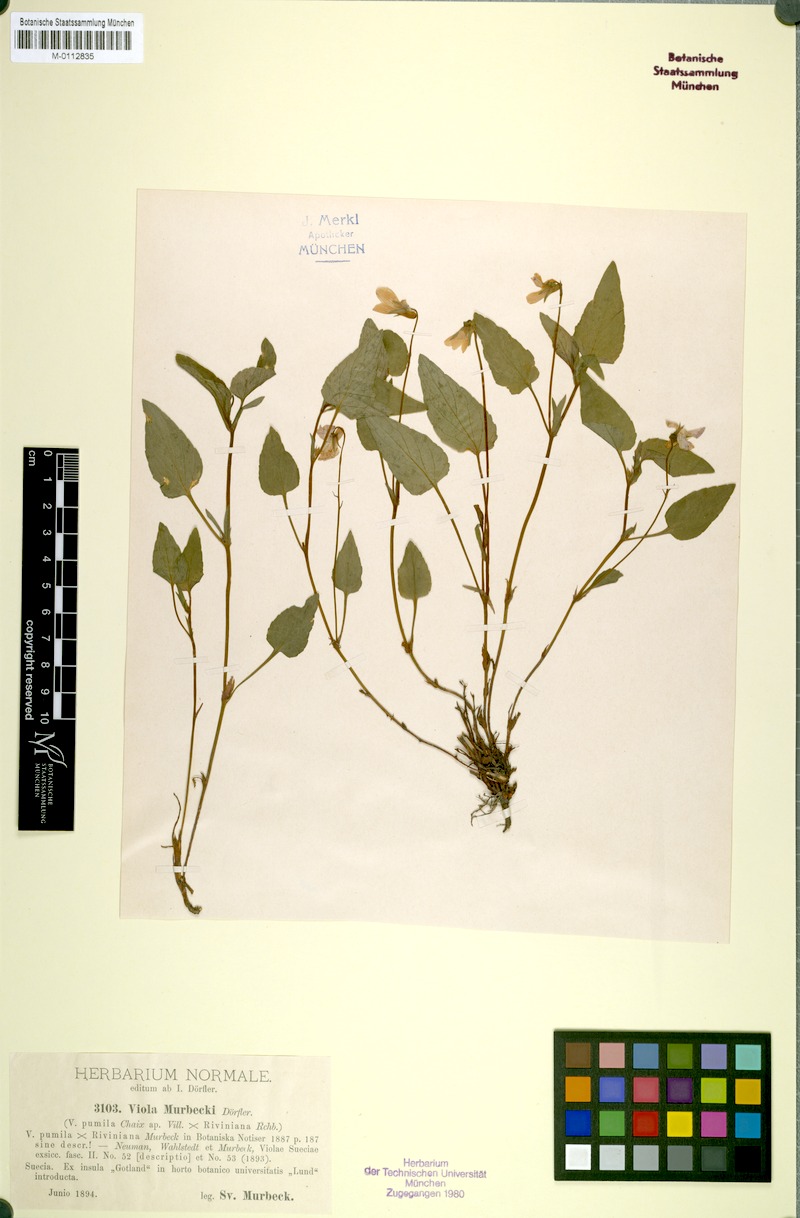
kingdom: Plantae
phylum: Tracheophyta
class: Magnoliopsida
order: Malpighiales
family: Violaceae
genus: Viola
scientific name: Viola murbeckii
